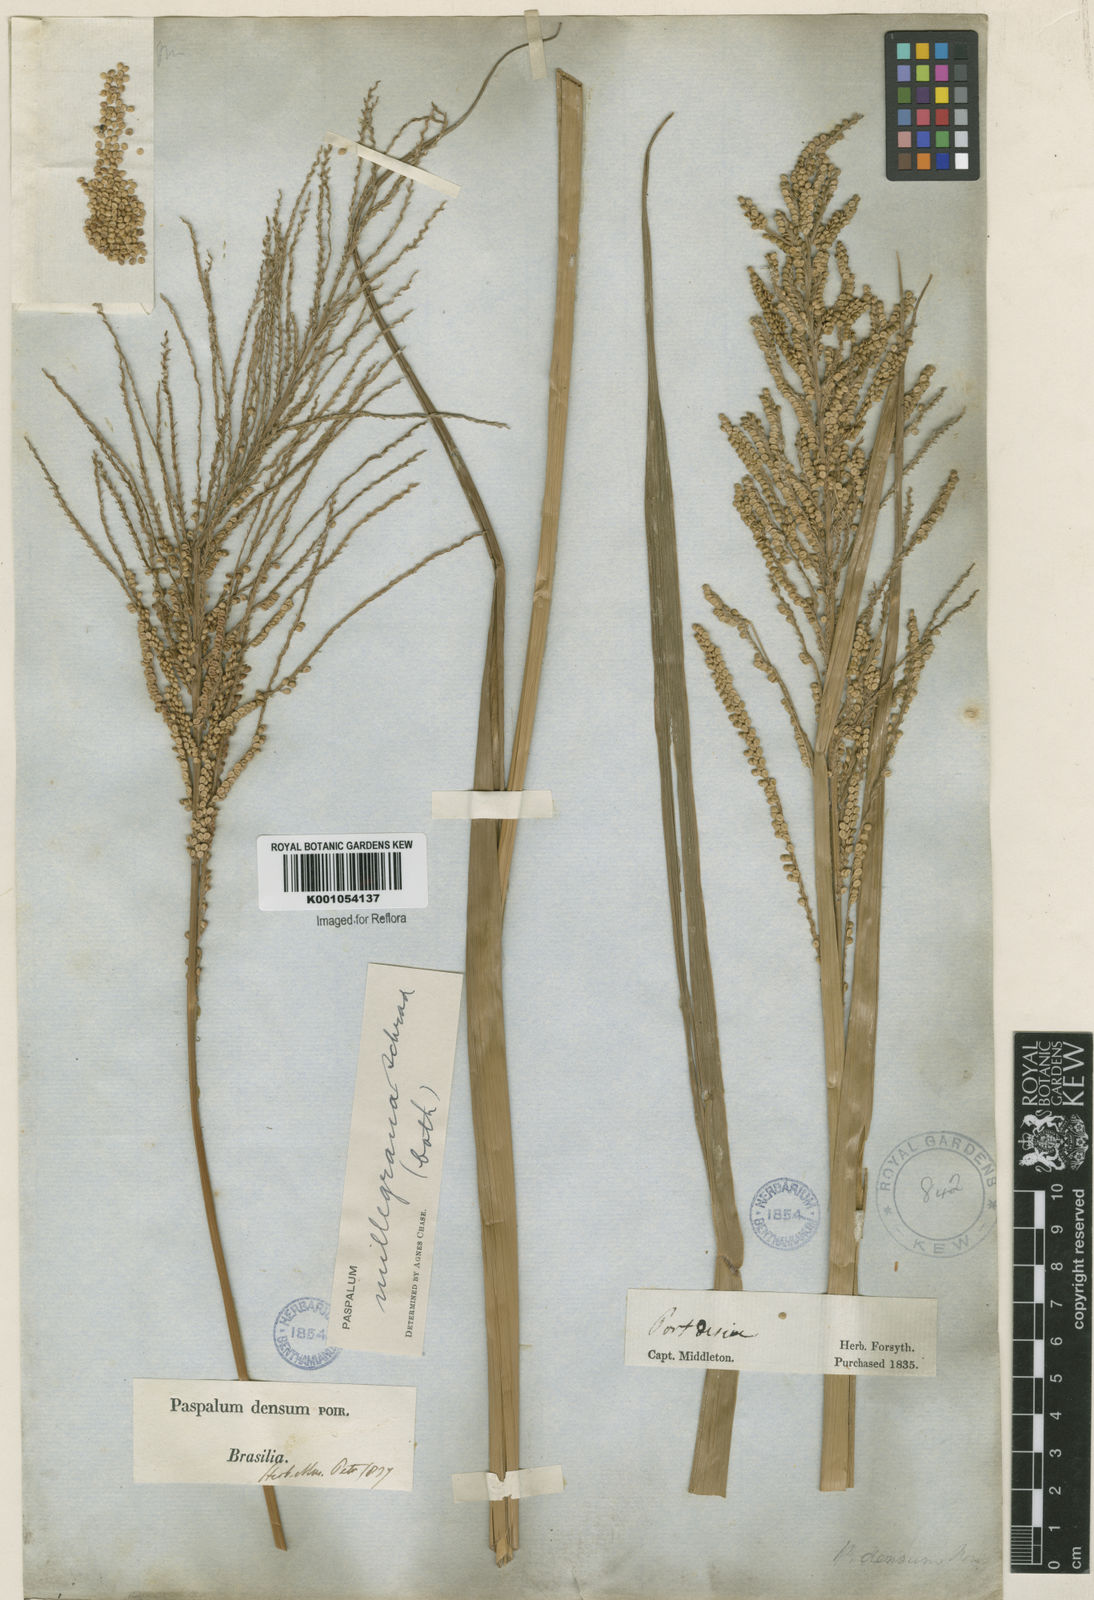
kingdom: Plantae
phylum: Tracheophyta
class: Liliopsida
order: Poales
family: Poaceae
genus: Paspalum
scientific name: Paspalum
